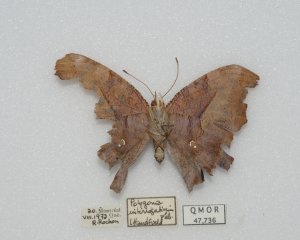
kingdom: Animalia
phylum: Arthropoda
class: Insecta
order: Lepidoptera
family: Nymphalidae
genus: Polygonia
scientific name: Polygonia interrogationis
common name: Question Mark
